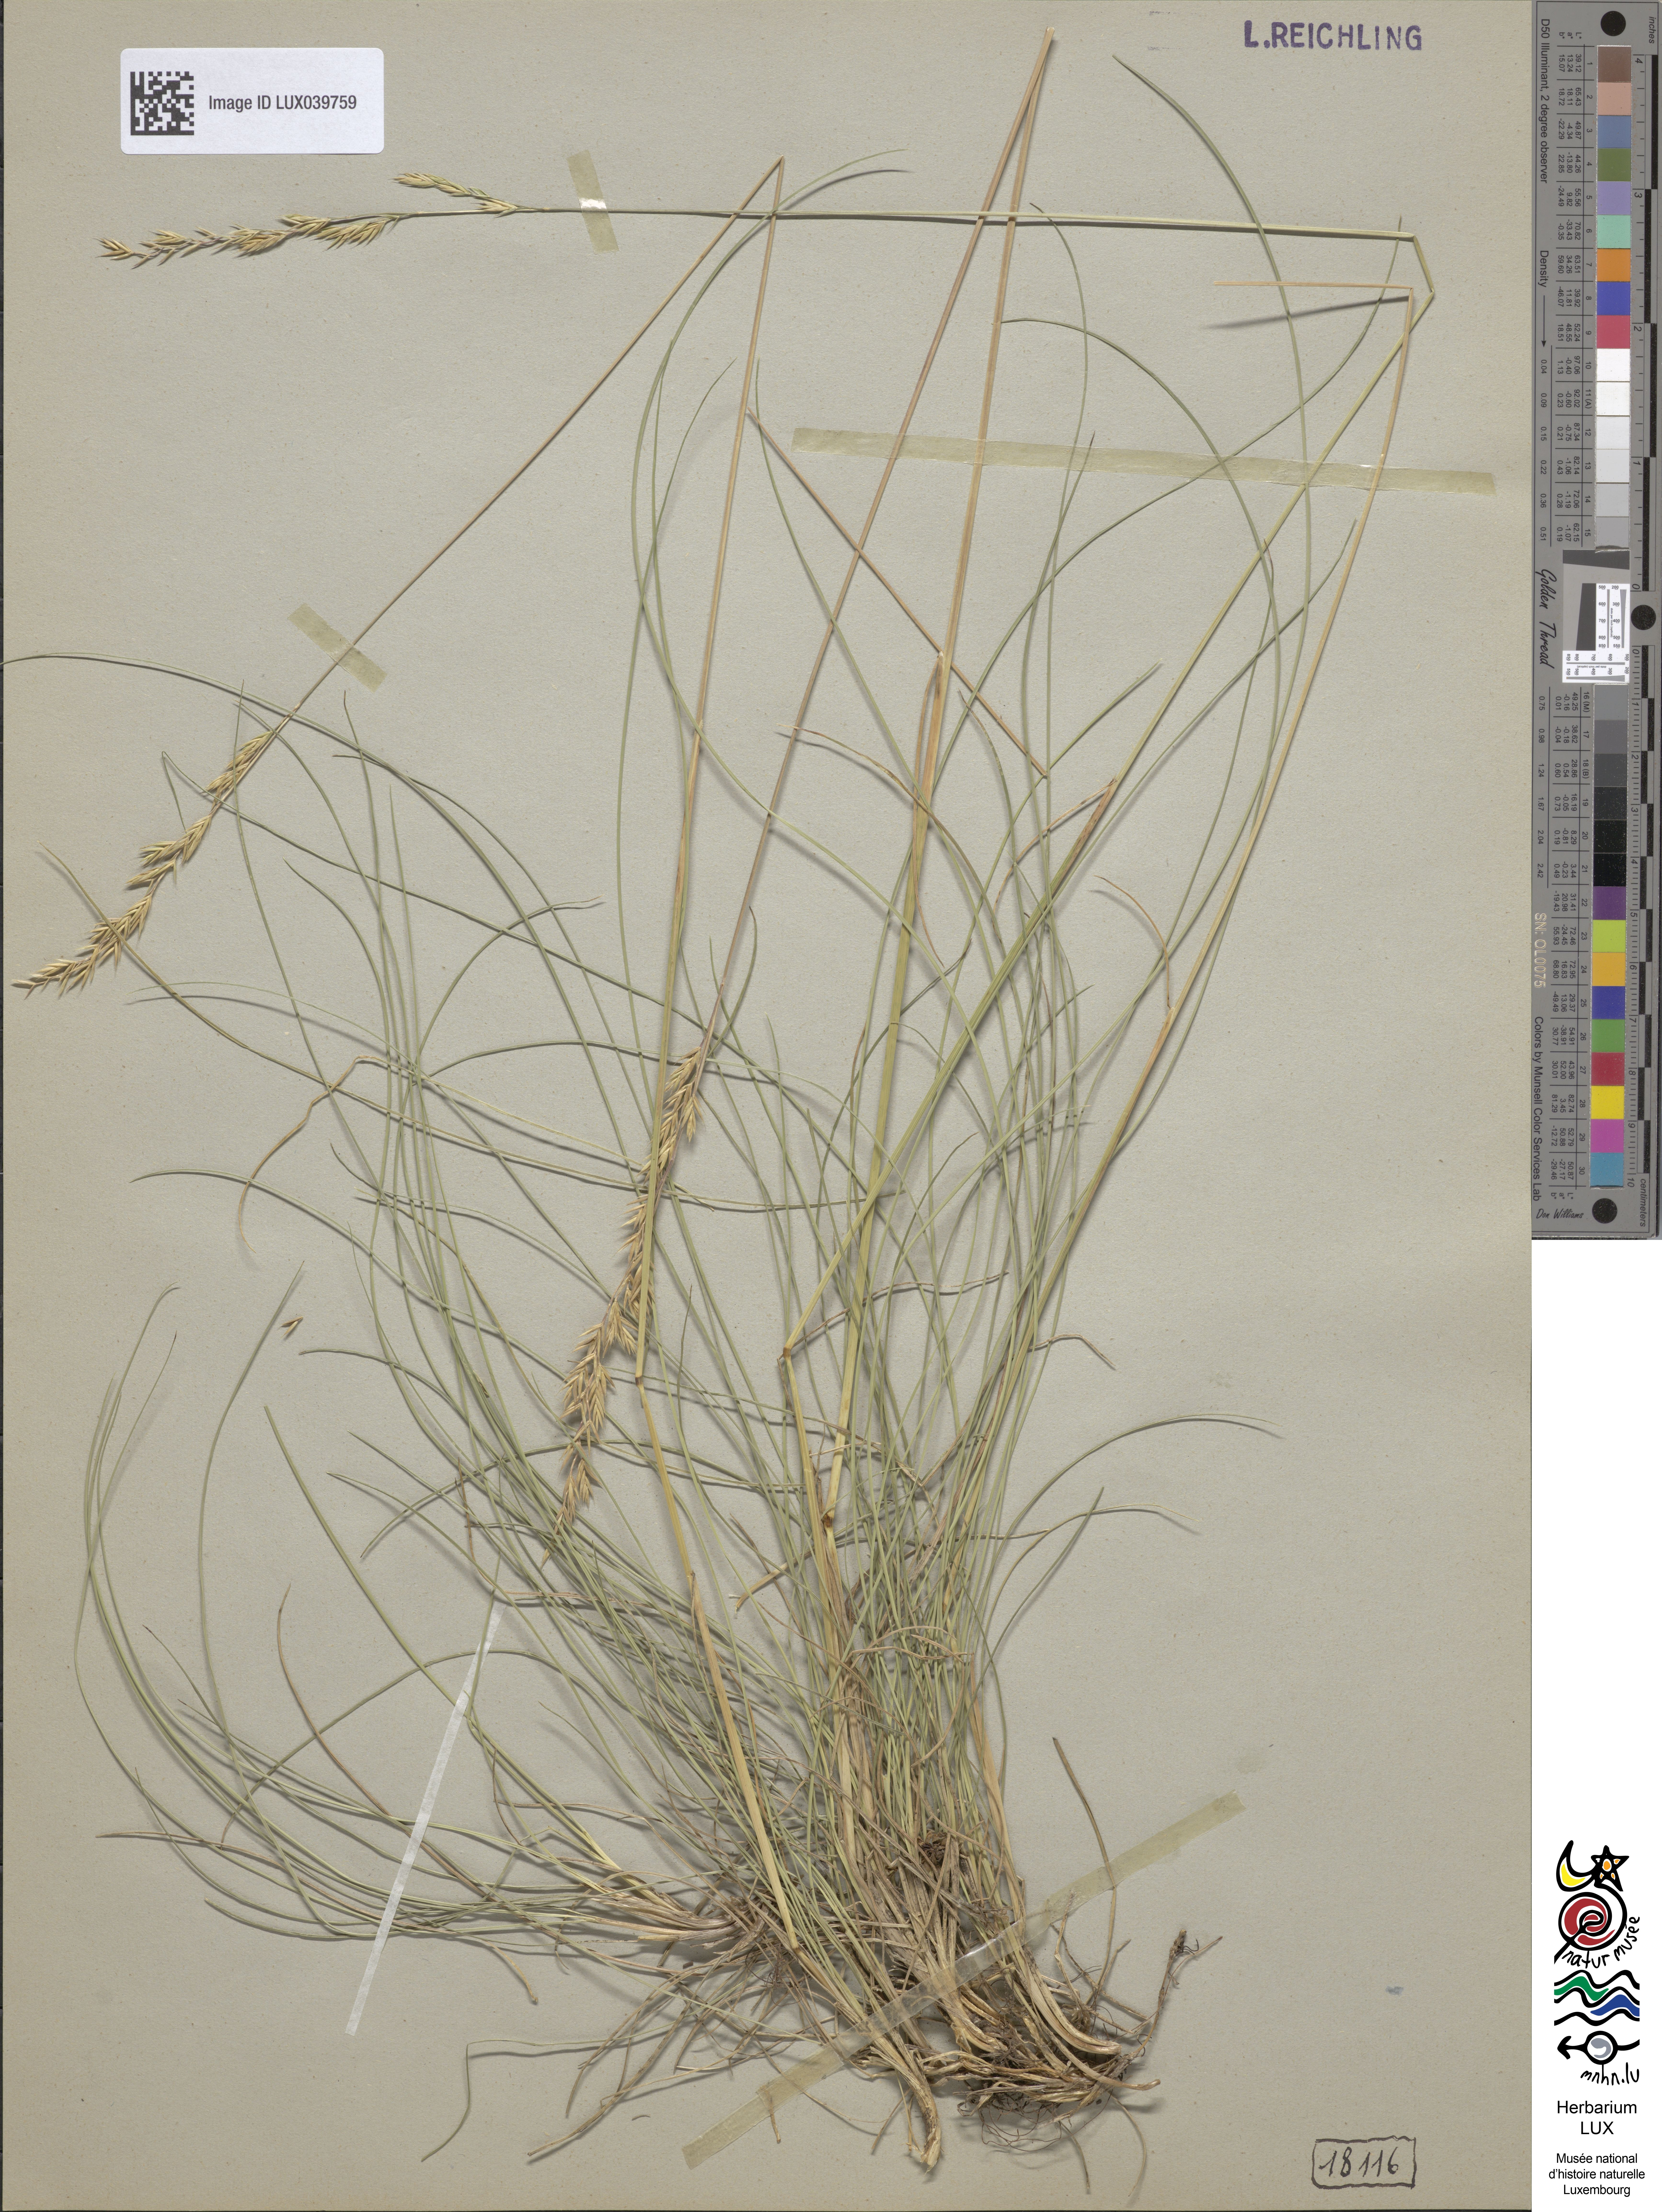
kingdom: Plantae
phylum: Tracheophyta
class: Liliopsida
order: Poales
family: Poaceae
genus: Festuca
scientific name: Festuca ovina
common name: Sheep fescue
